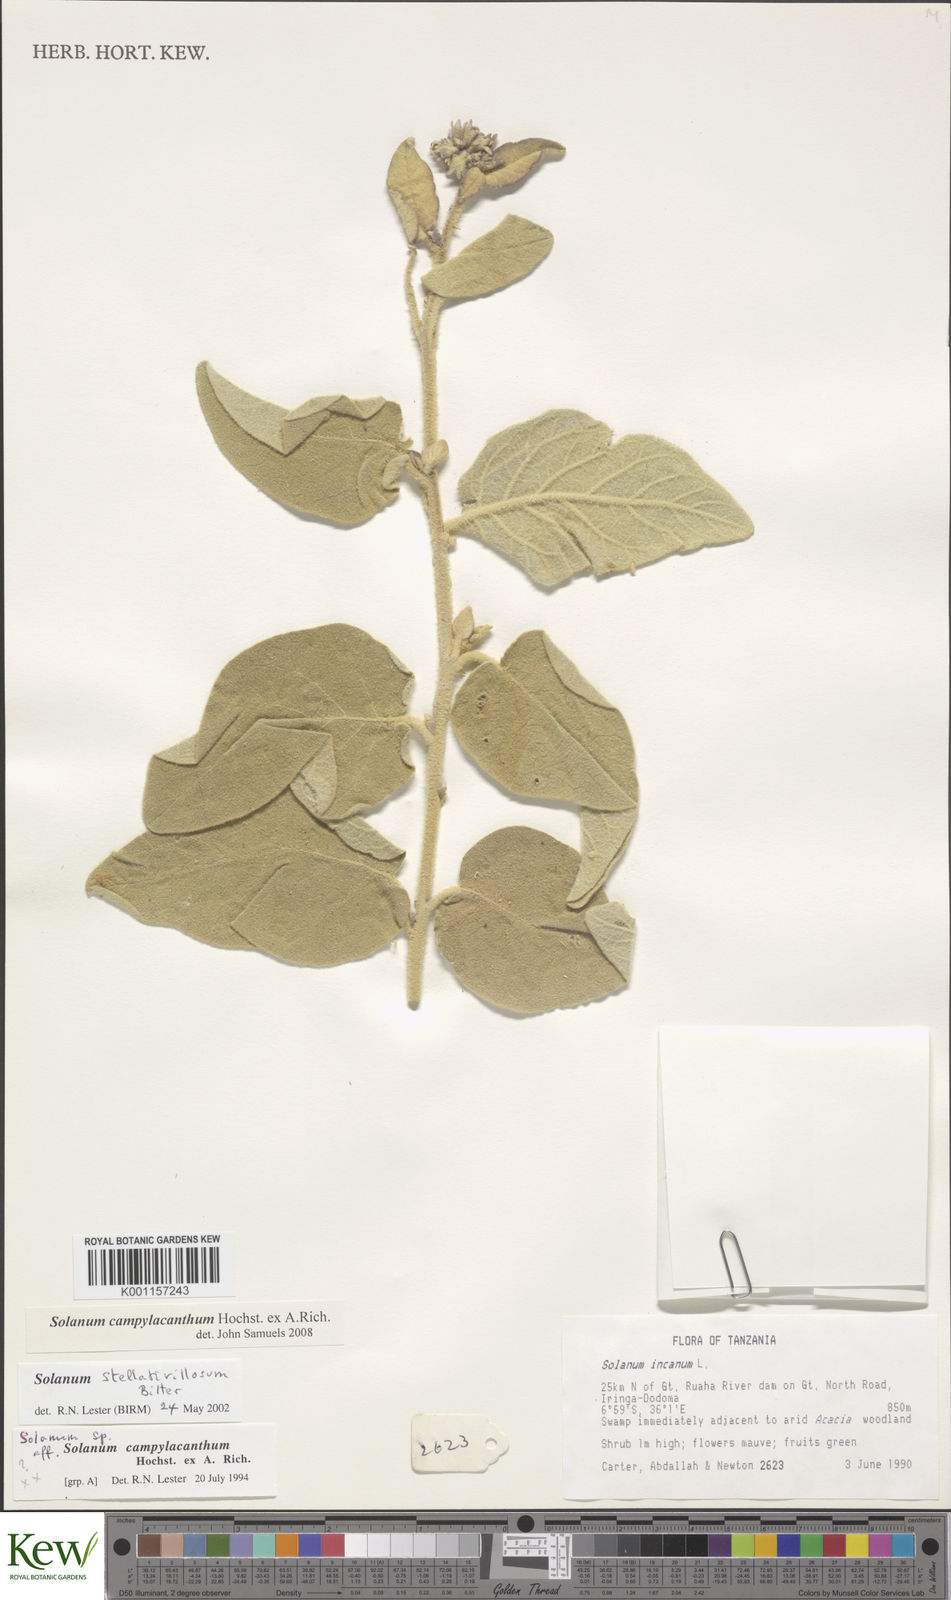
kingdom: Plantae
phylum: Tracheophyta
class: Magnoliopsida
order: Solanales
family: Solanaceae
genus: Solanum
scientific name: Solanum campylacanthum
